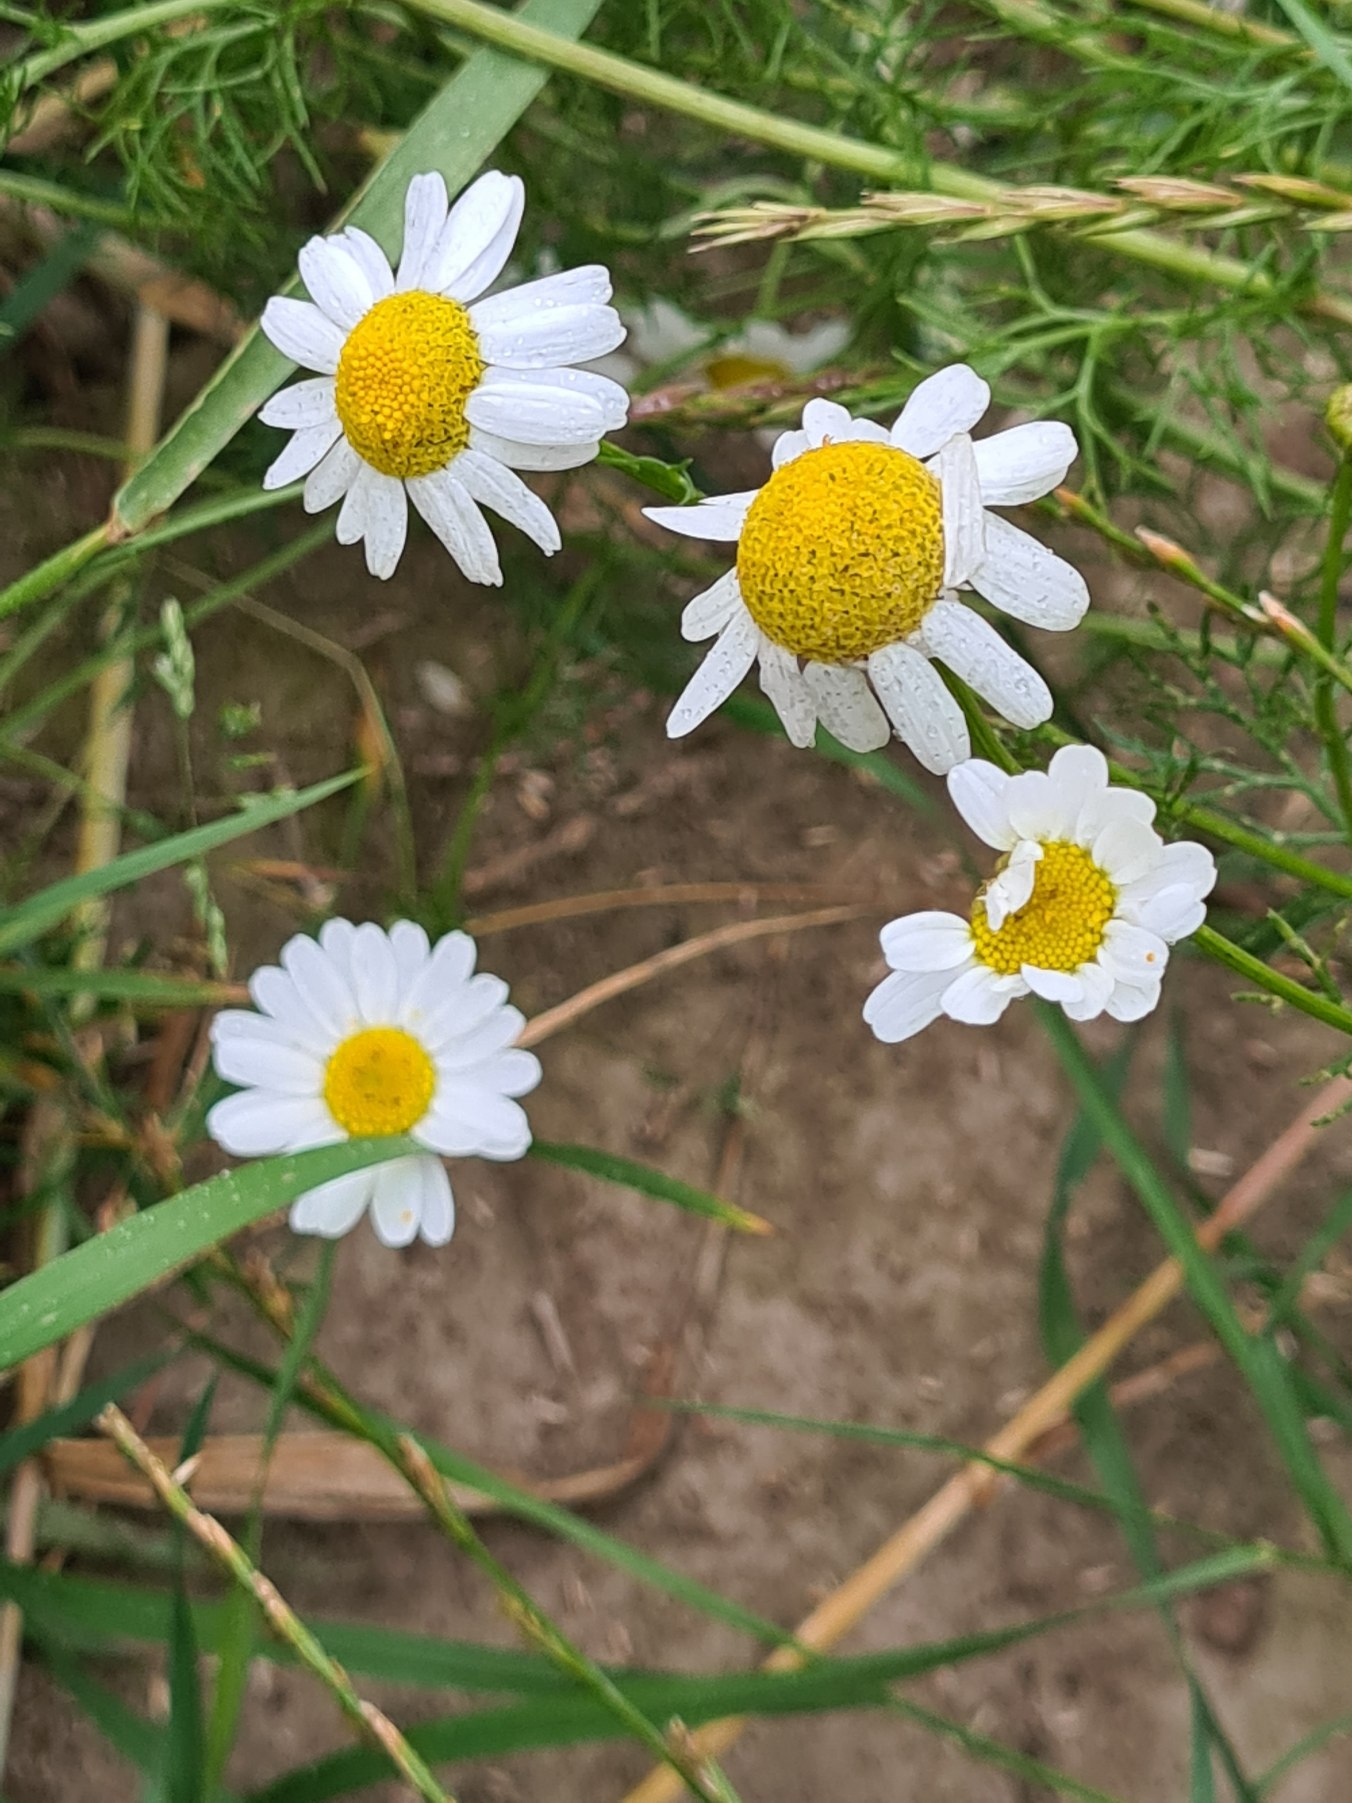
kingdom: Plantae
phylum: Tracheophyta
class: Magnoliopsida
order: Asterales
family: Asteraceae
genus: Tripleurospermum
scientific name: Tripleurospermum inodorum
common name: Lugtløs kamille
